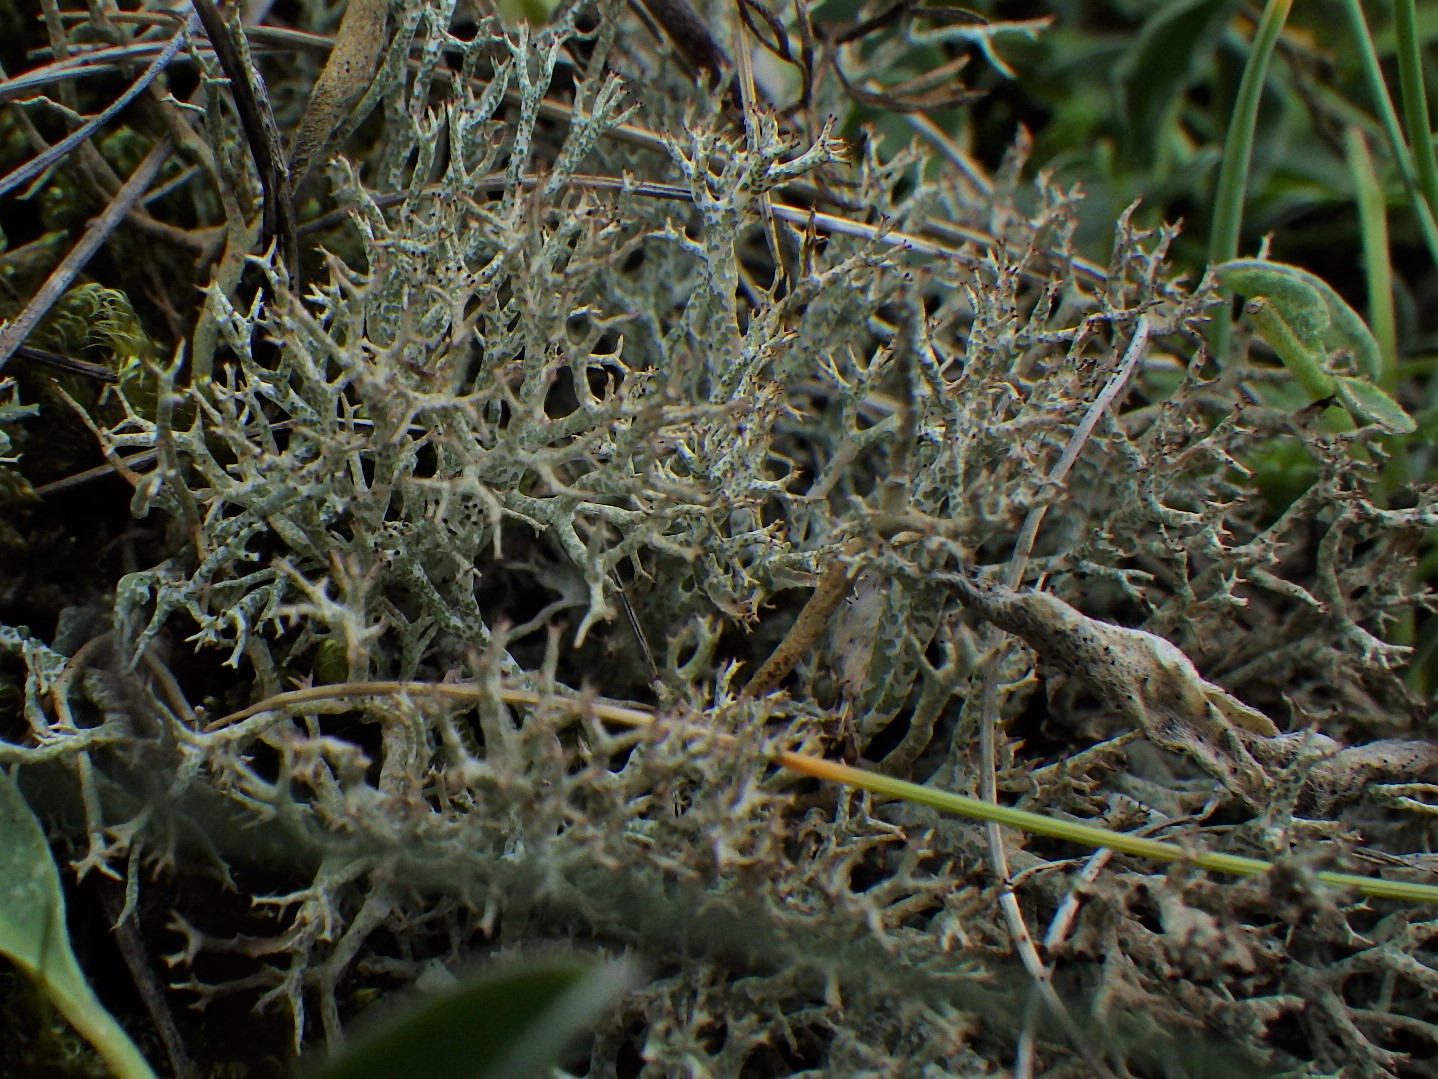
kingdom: Fungi
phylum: Ascomycota
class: Lecanoromycetes
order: Lecanorales
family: Cladoniaceae
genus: Cladonia
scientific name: Cladonia rangiformis
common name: spættet bægerlav
